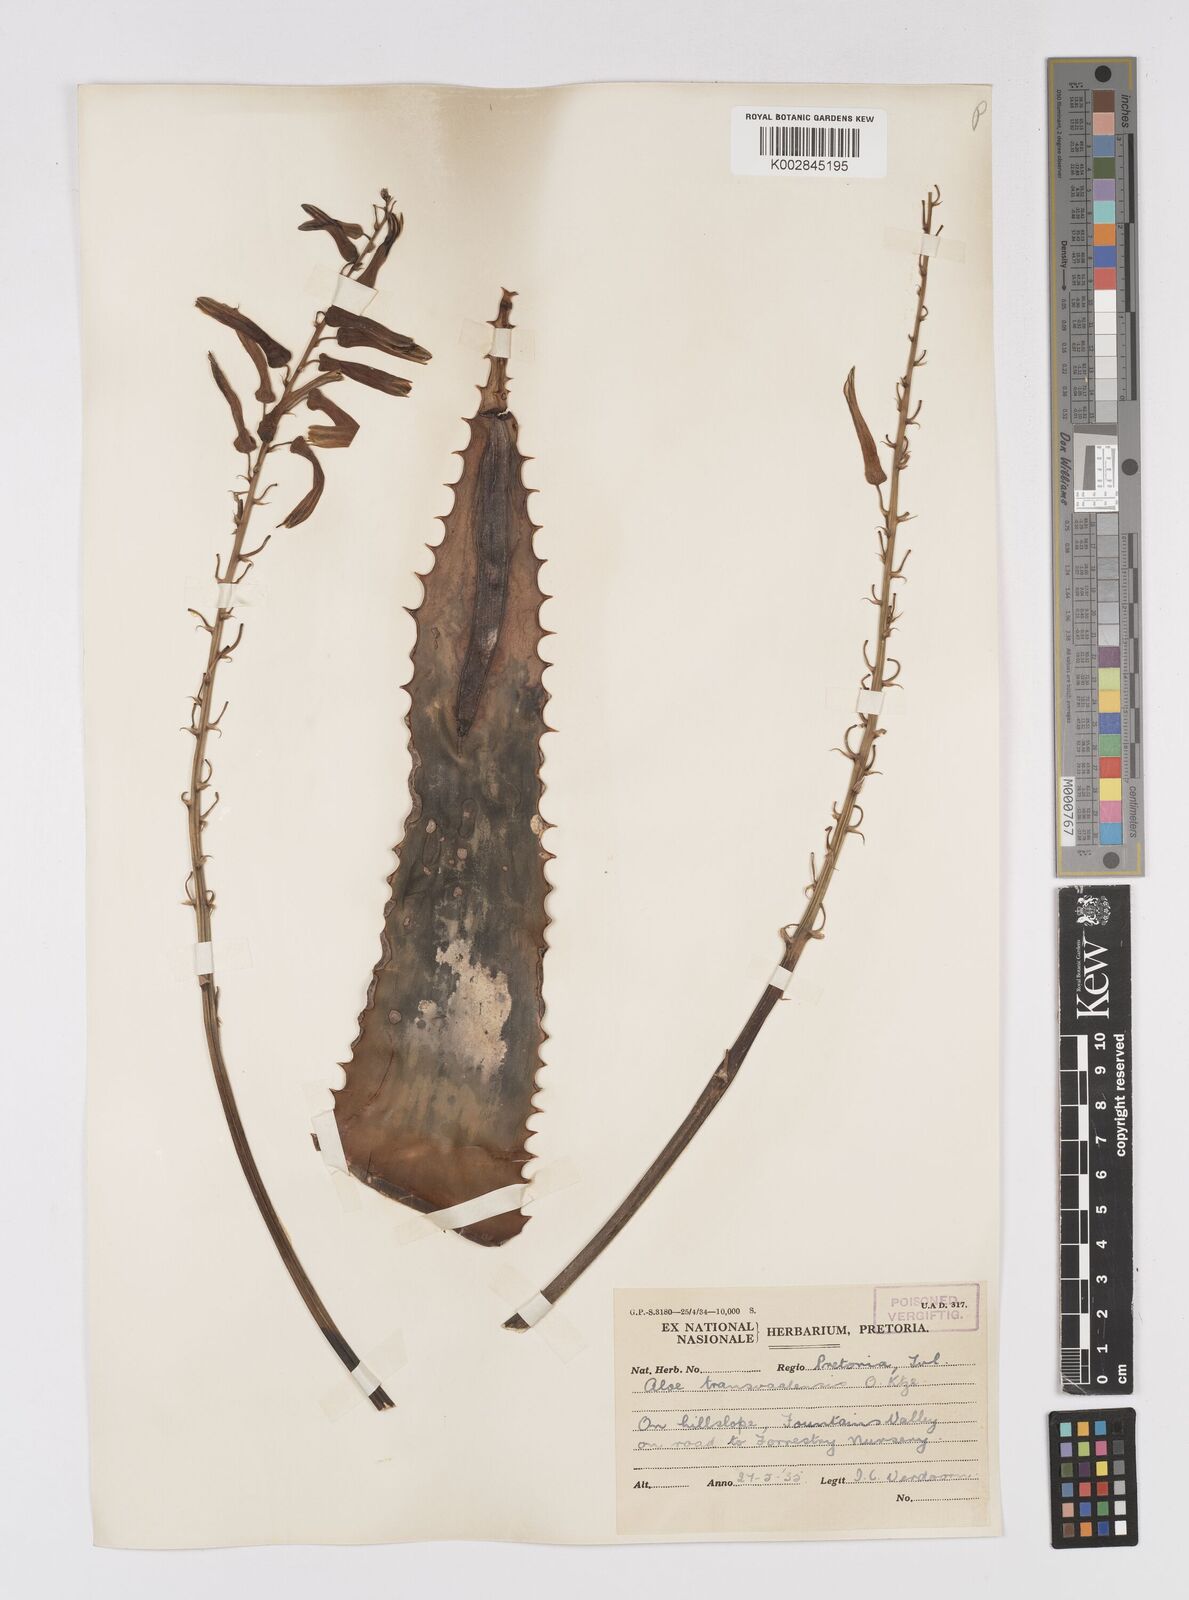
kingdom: Plantae
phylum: Tracheophyta
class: Liliopsida
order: Asparagales
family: Asphodelaceae
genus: Aloe
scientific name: Aloe transvaalensis
